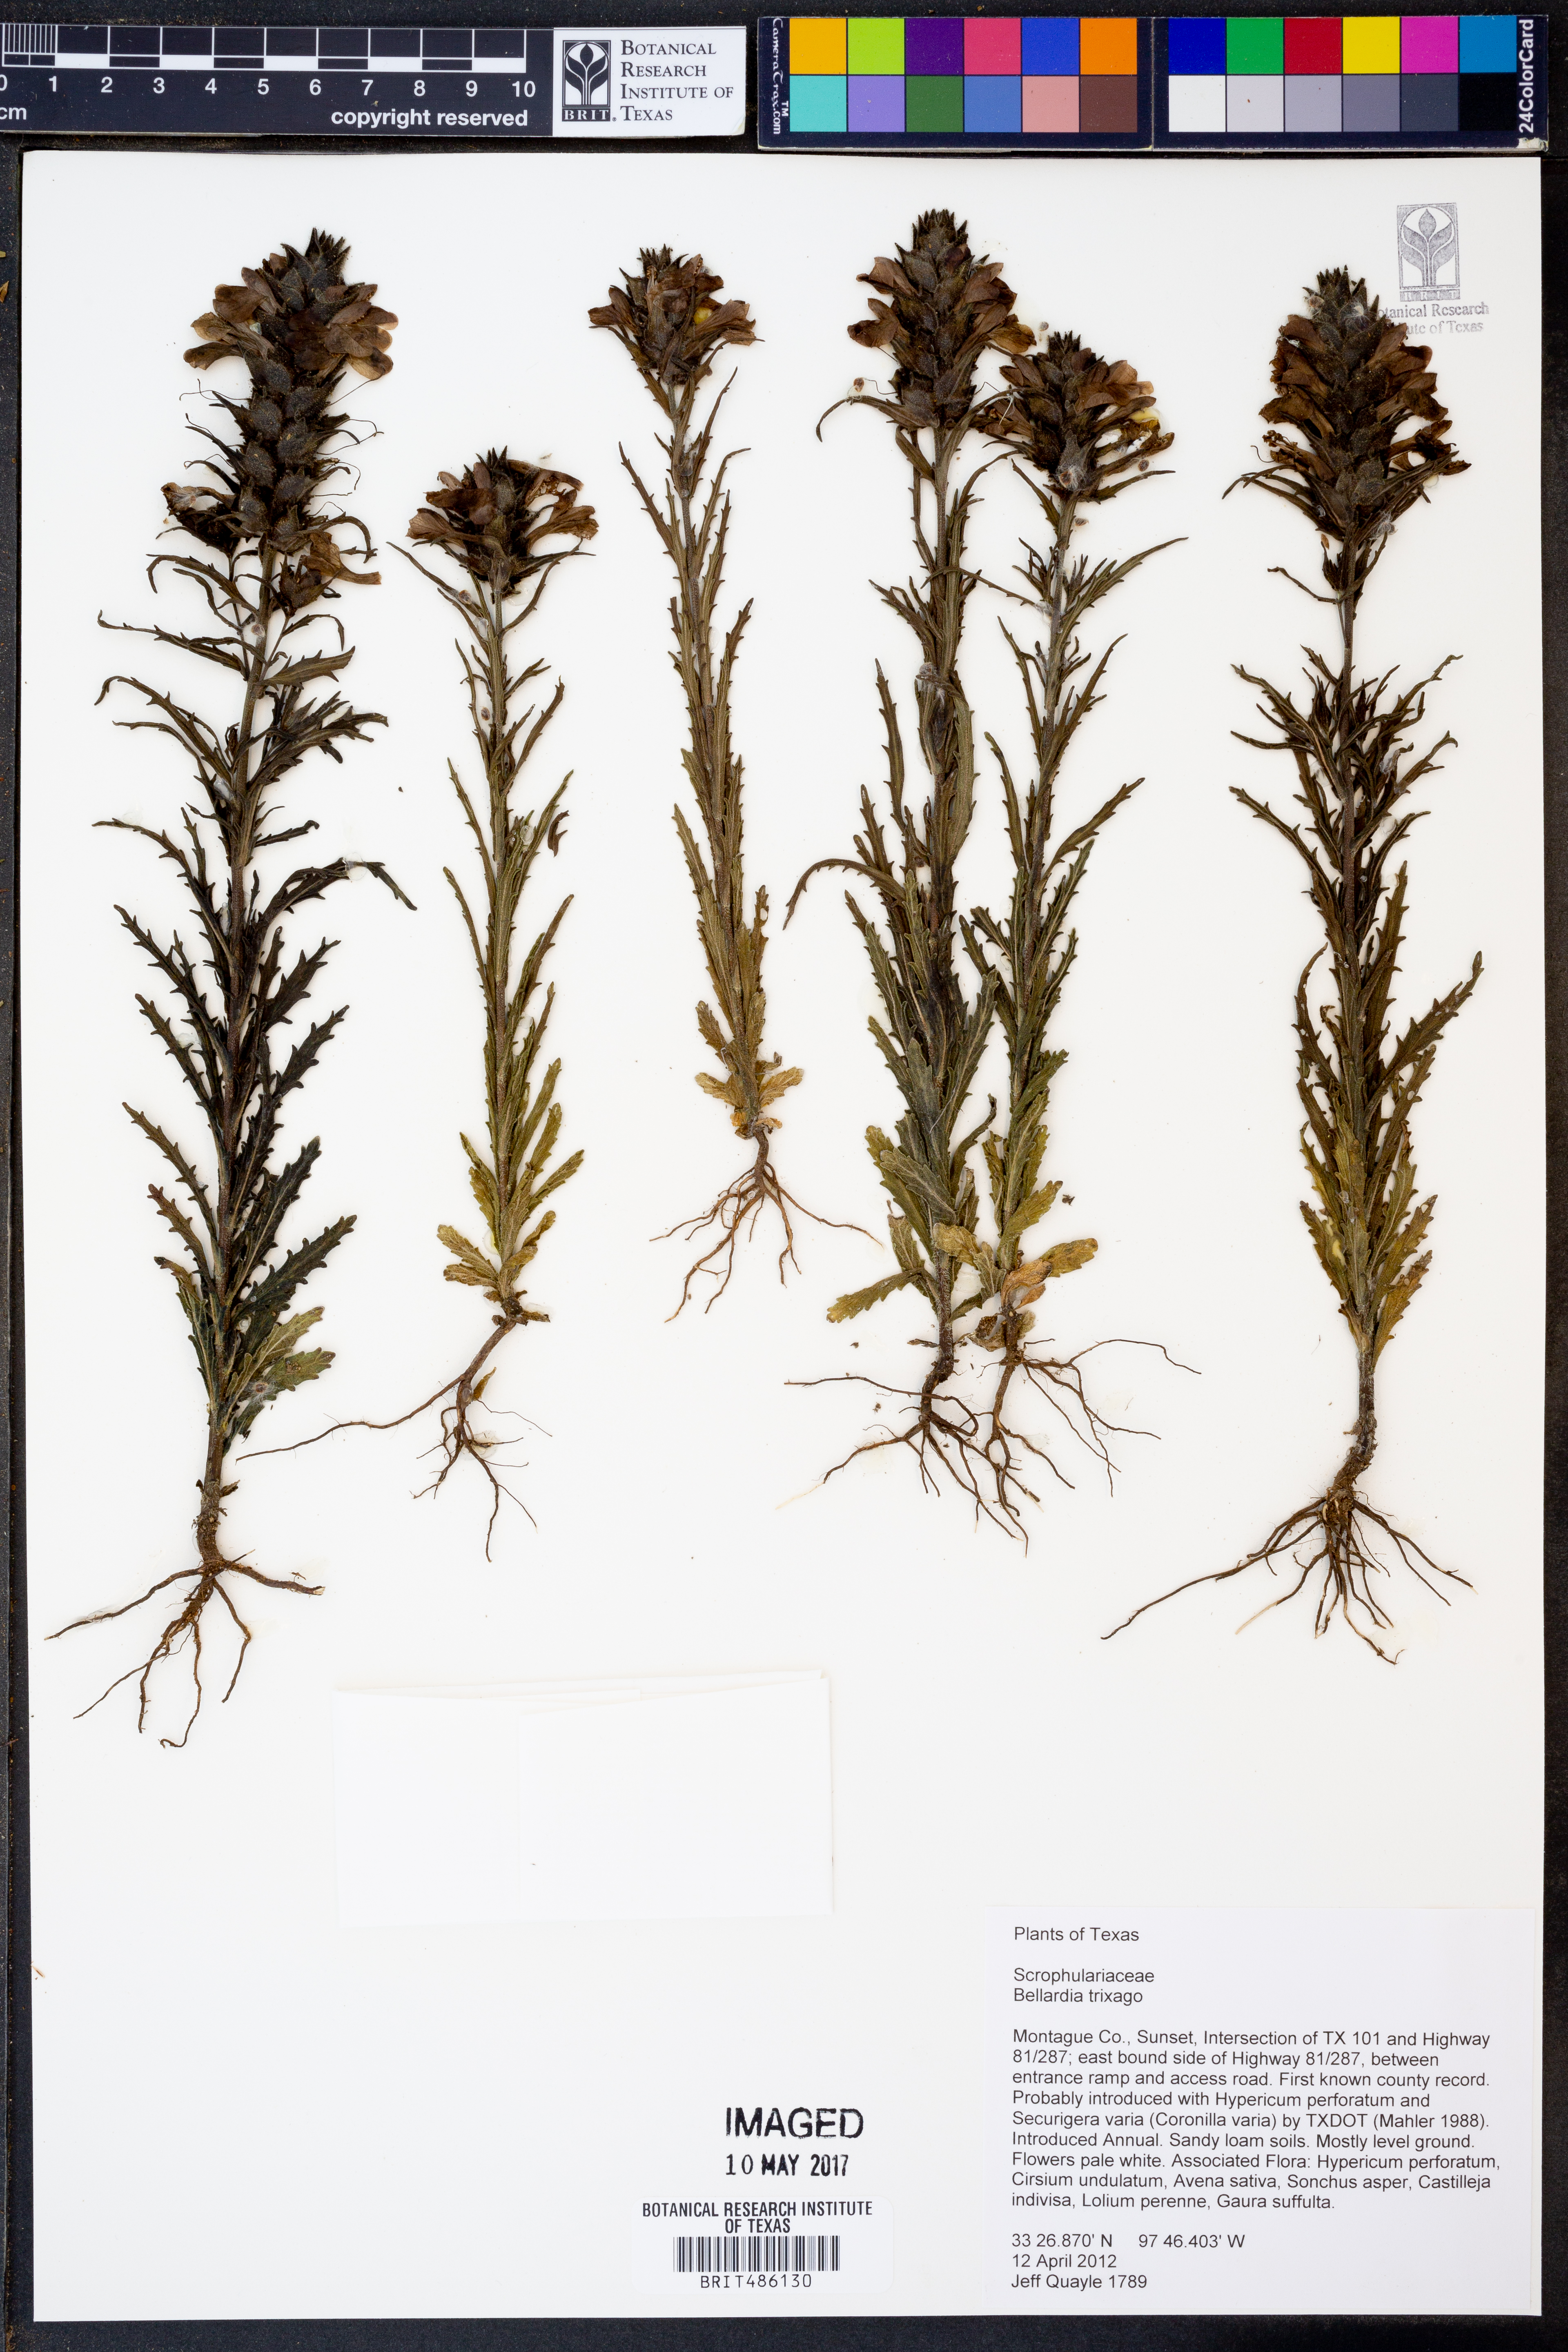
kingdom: Plantae
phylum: Tracheophyta
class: Magnoliopsida
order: Lamiales
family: Orobanchaceae
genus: Bellardia
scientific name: Bellardia trixago
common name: Mediterranean lineseed
